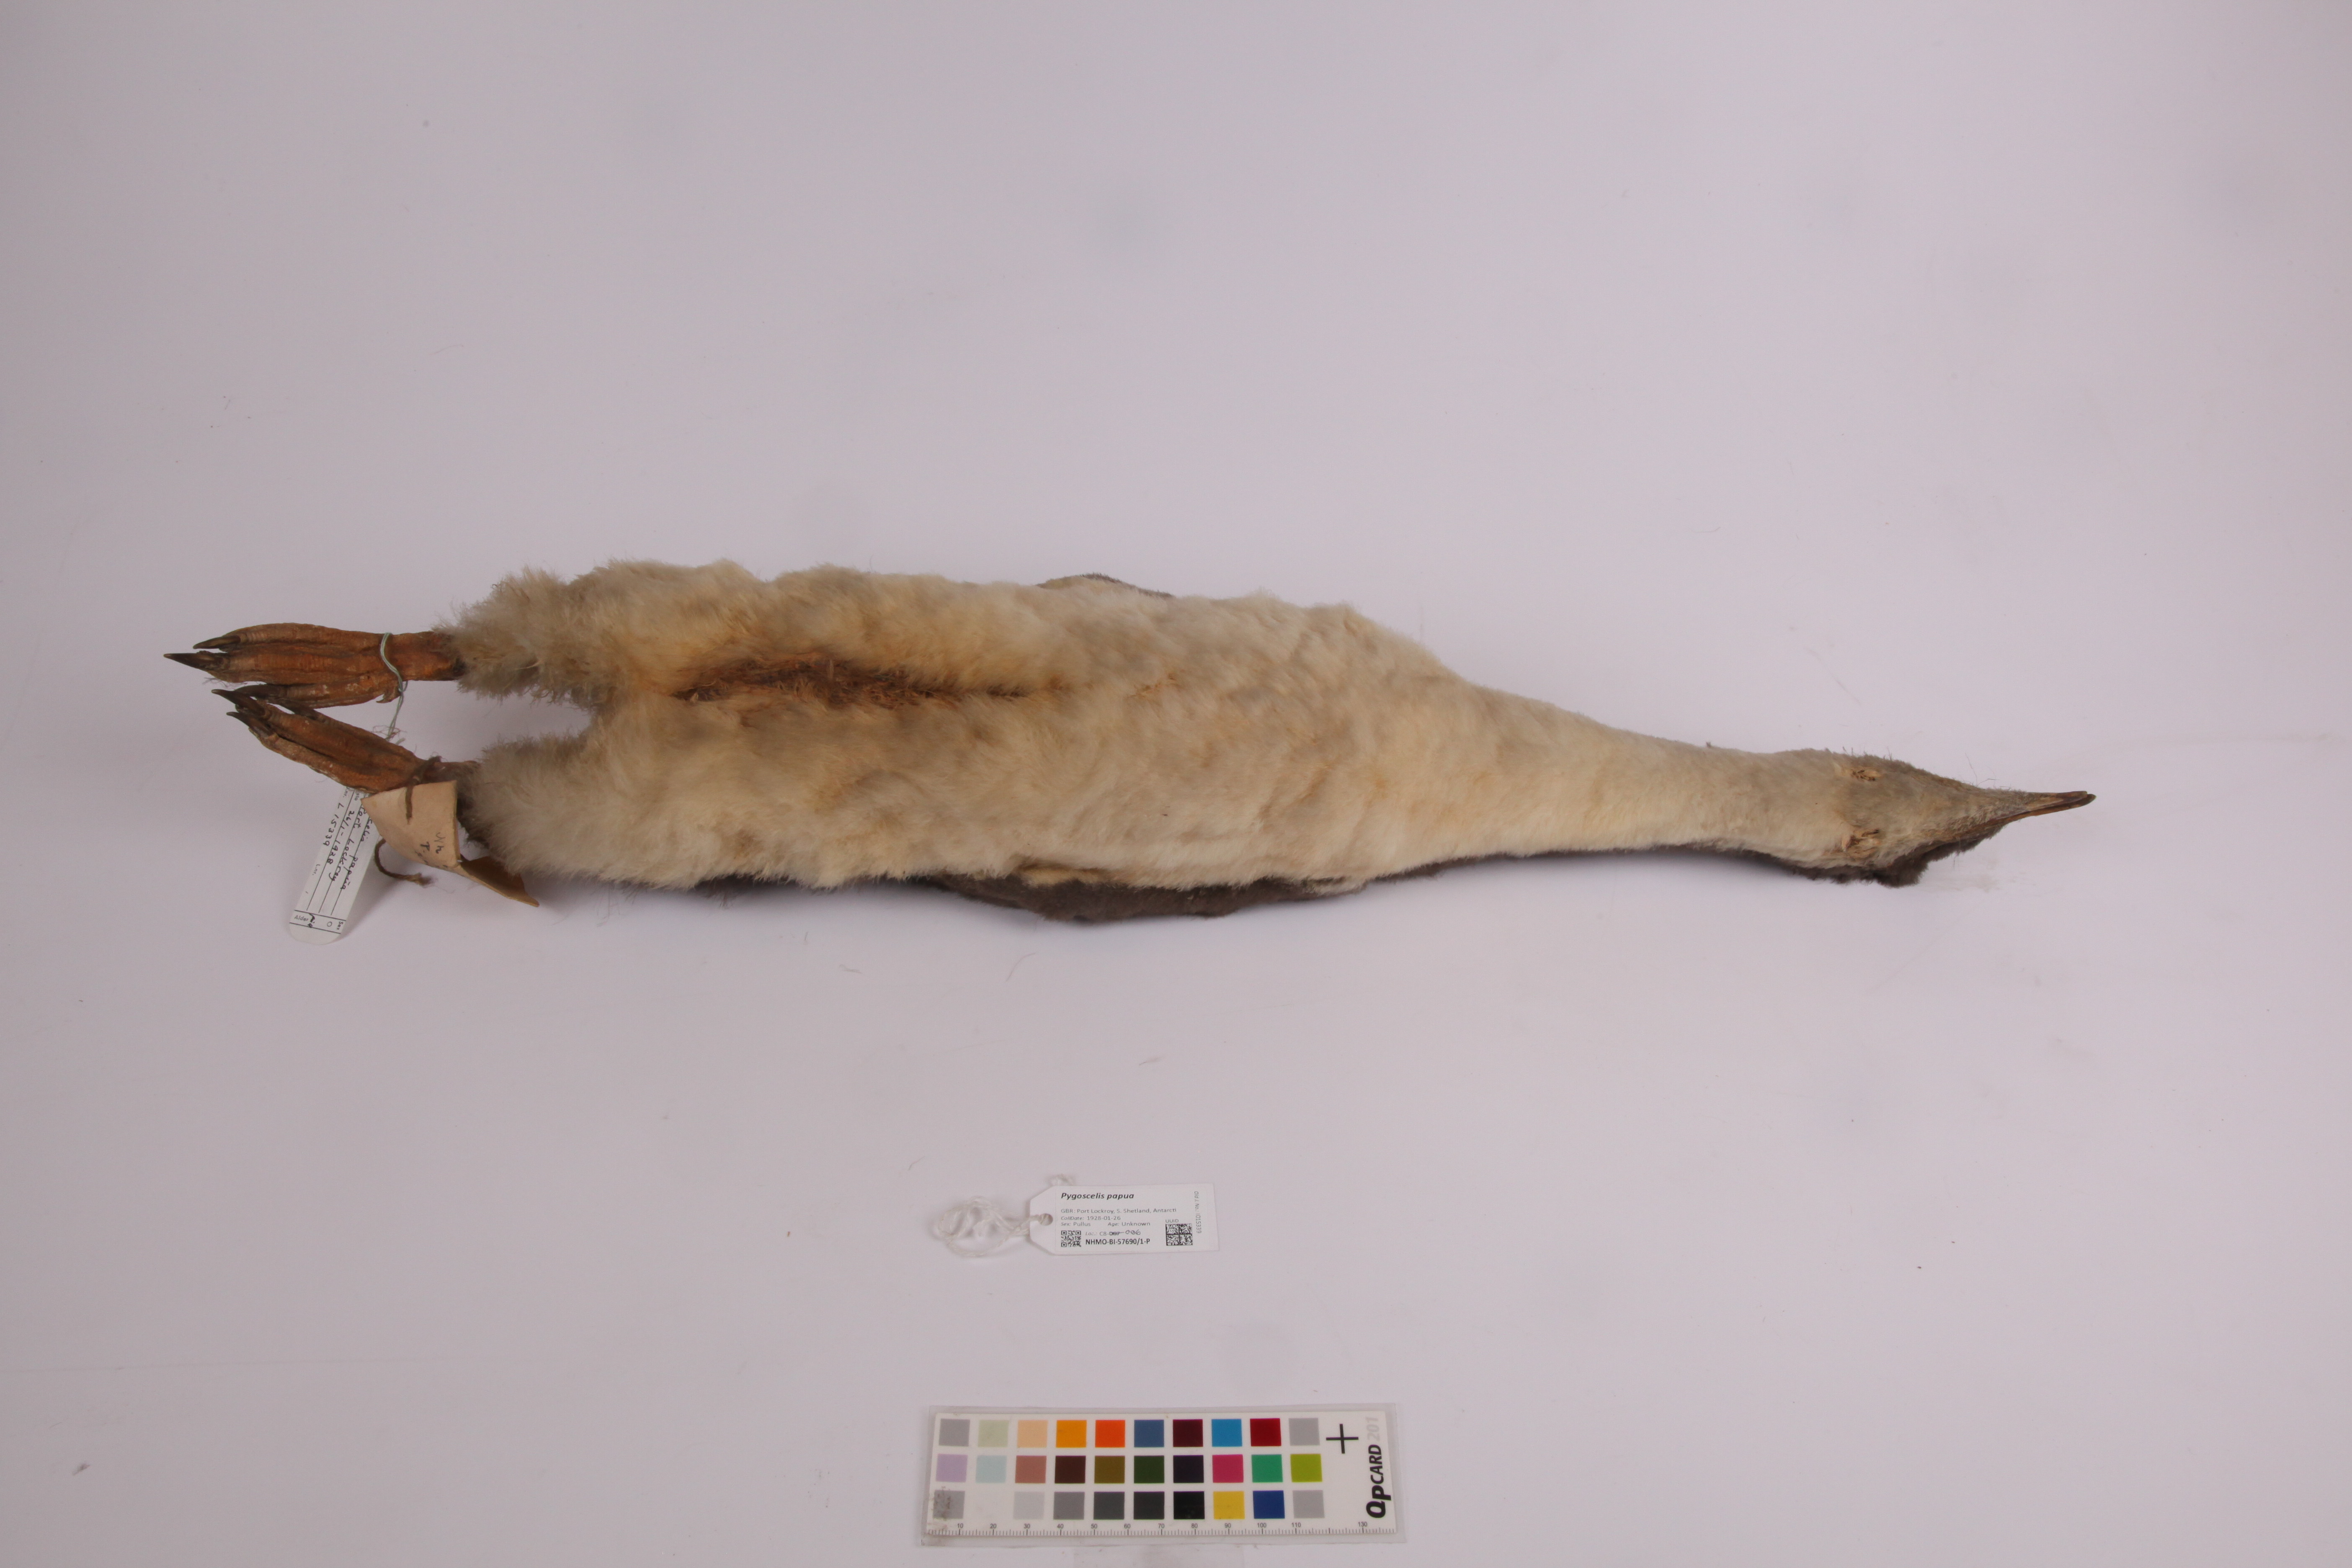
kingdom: Animalia
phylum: Chordata
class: Aves
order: Sphenisciformes
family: Spheniscidae
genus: Pygoscelis
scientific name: Pygoscelis papua
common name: Gentoo penguin
